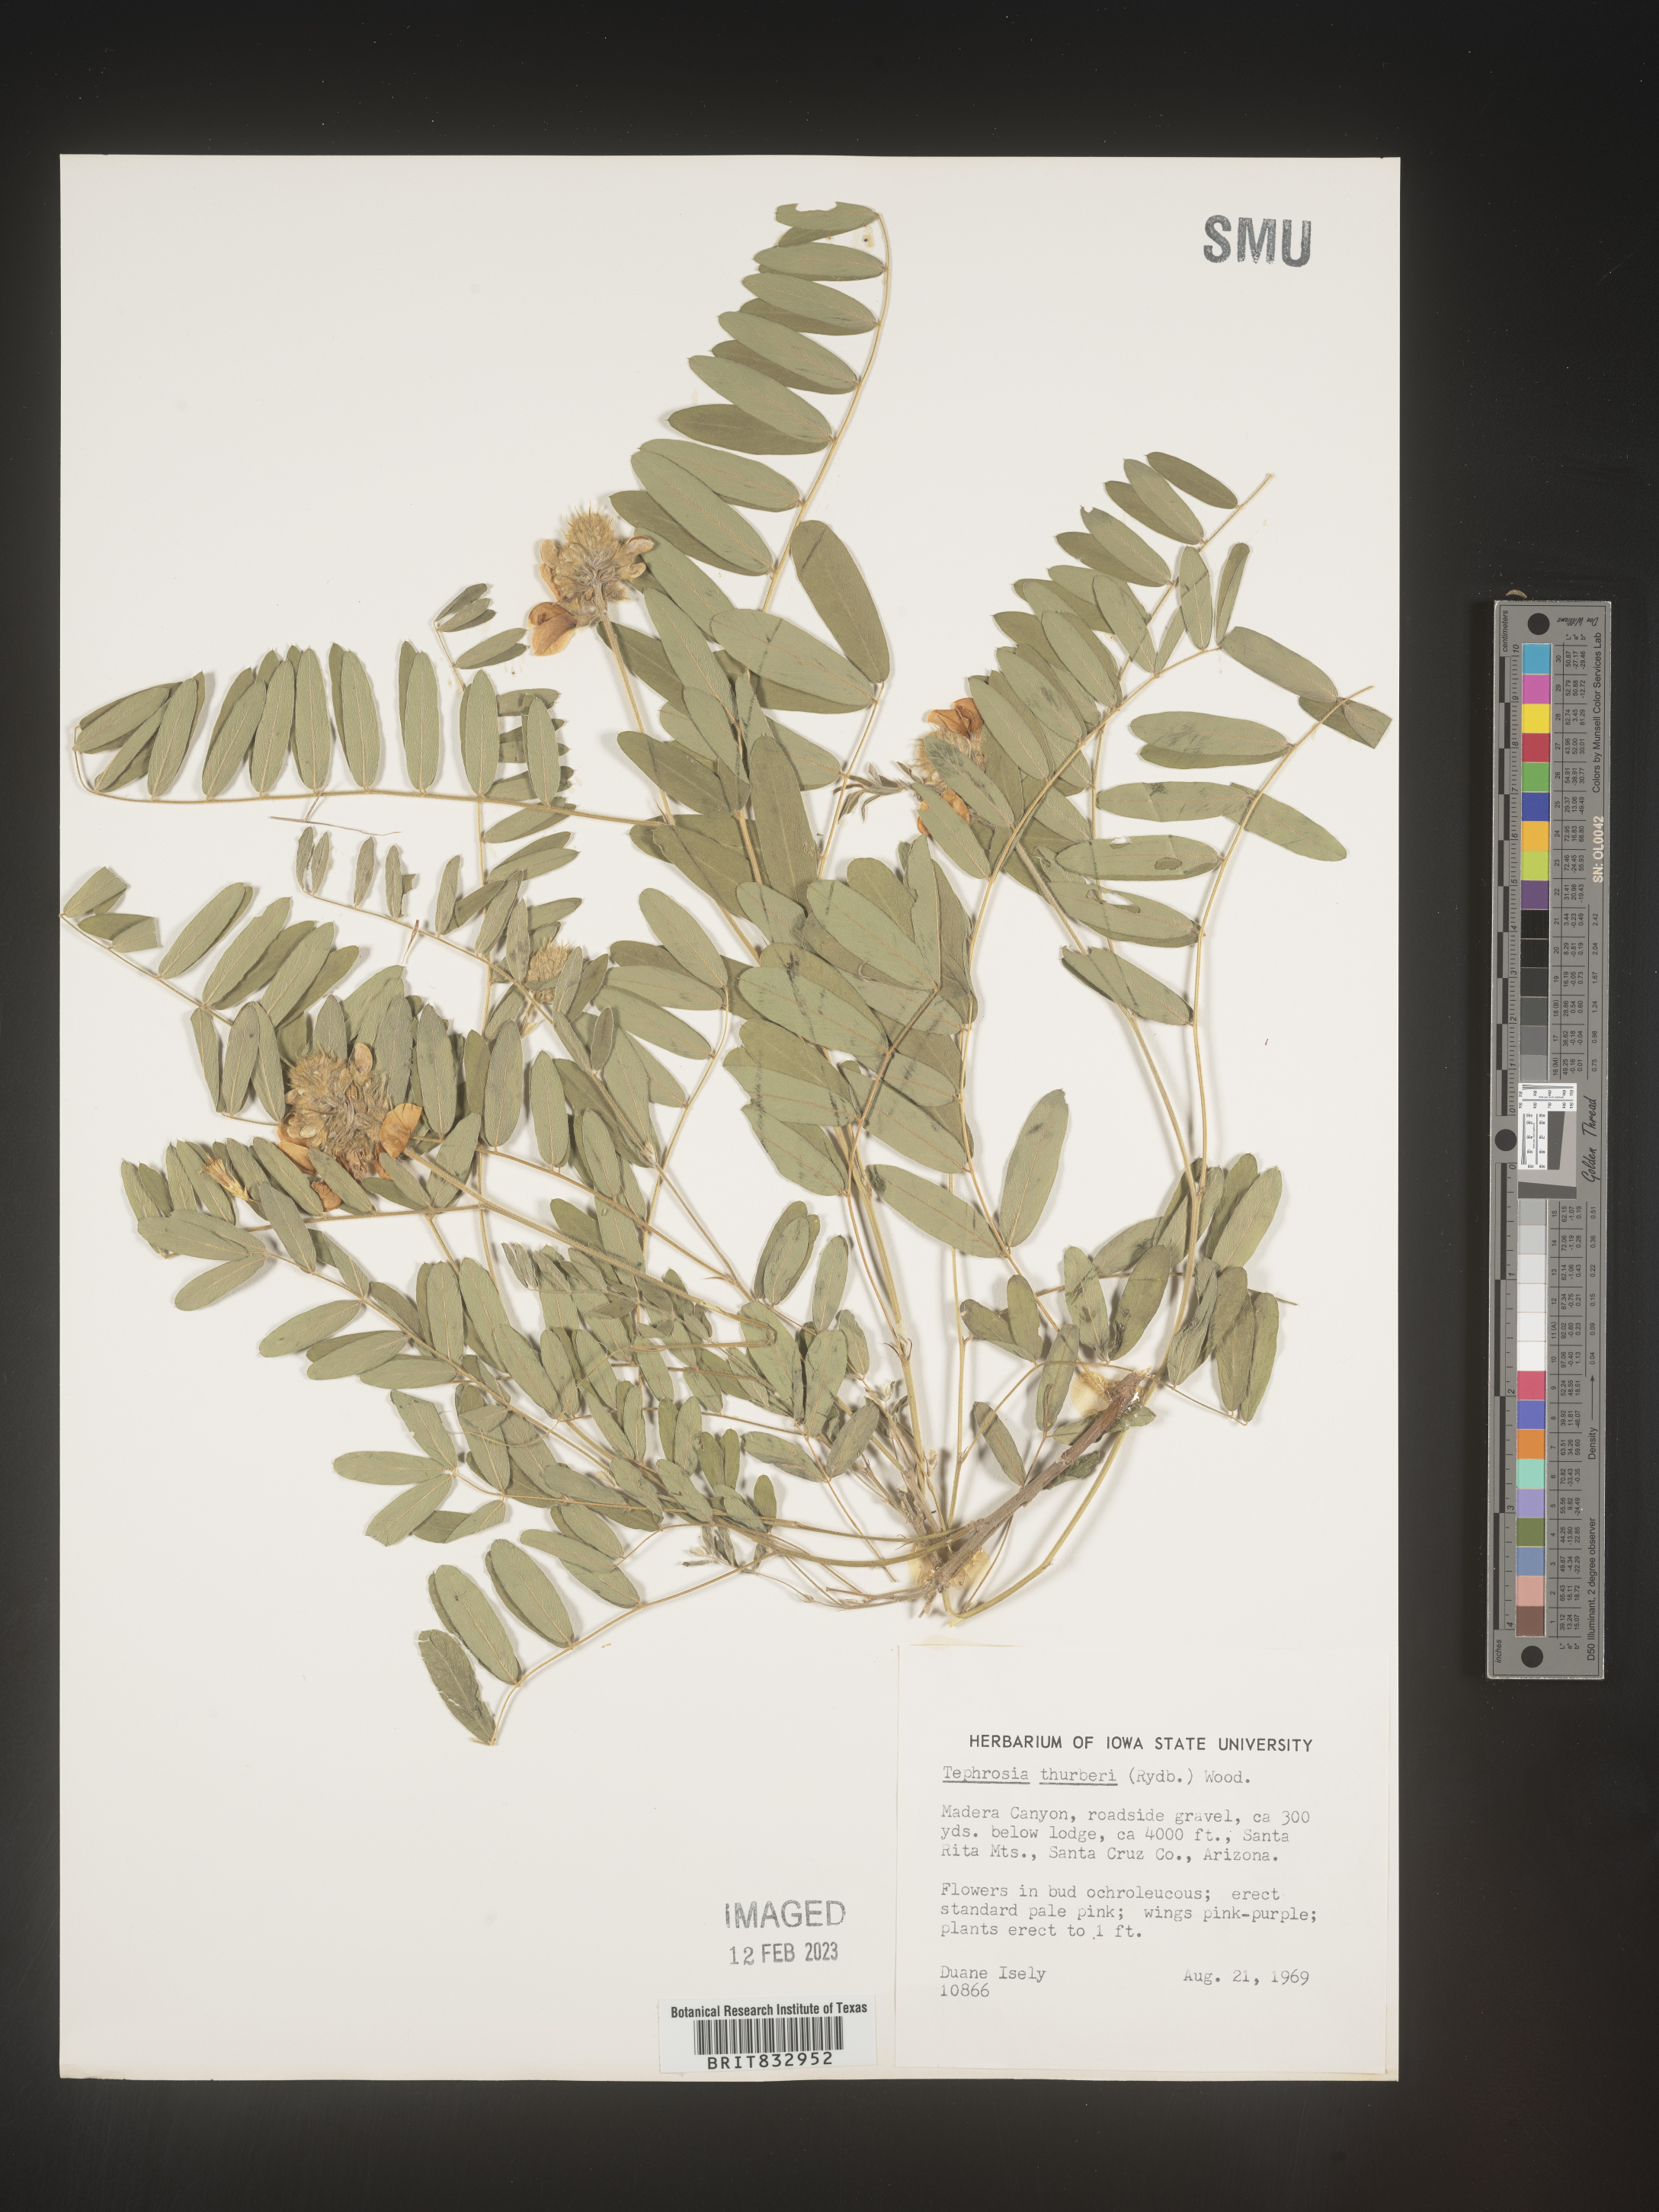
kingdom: Plantae
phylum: Tracheophyta
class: Magnoliopsida
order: Fabales
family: Fabaceae
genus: Tephrosia
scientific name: Tephrosia thurberi
